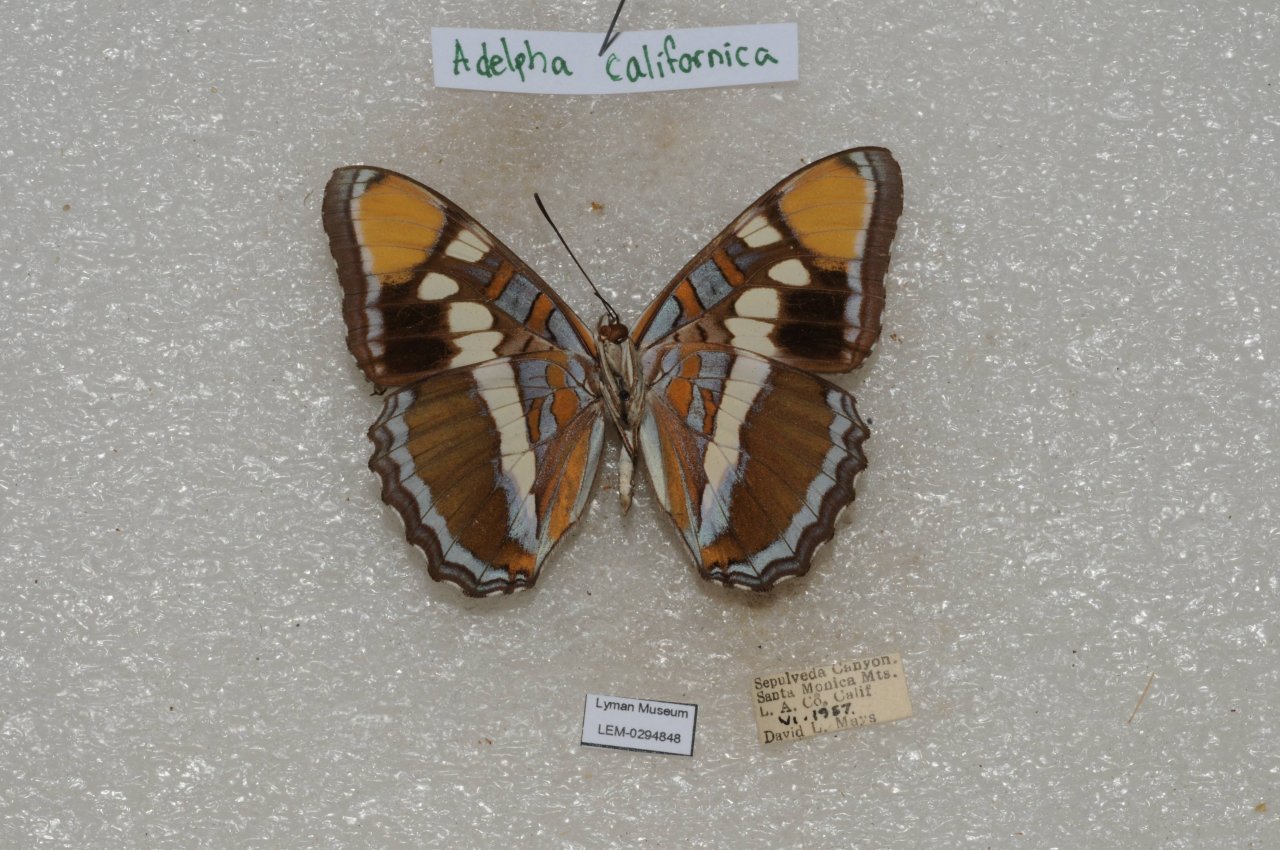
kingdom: Animalia
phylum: Arthropoda
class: Insecta
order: Lepidoptera
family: Nymphalidae
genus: Limenitis
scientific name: Limenitis bredowii
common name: California Sister
